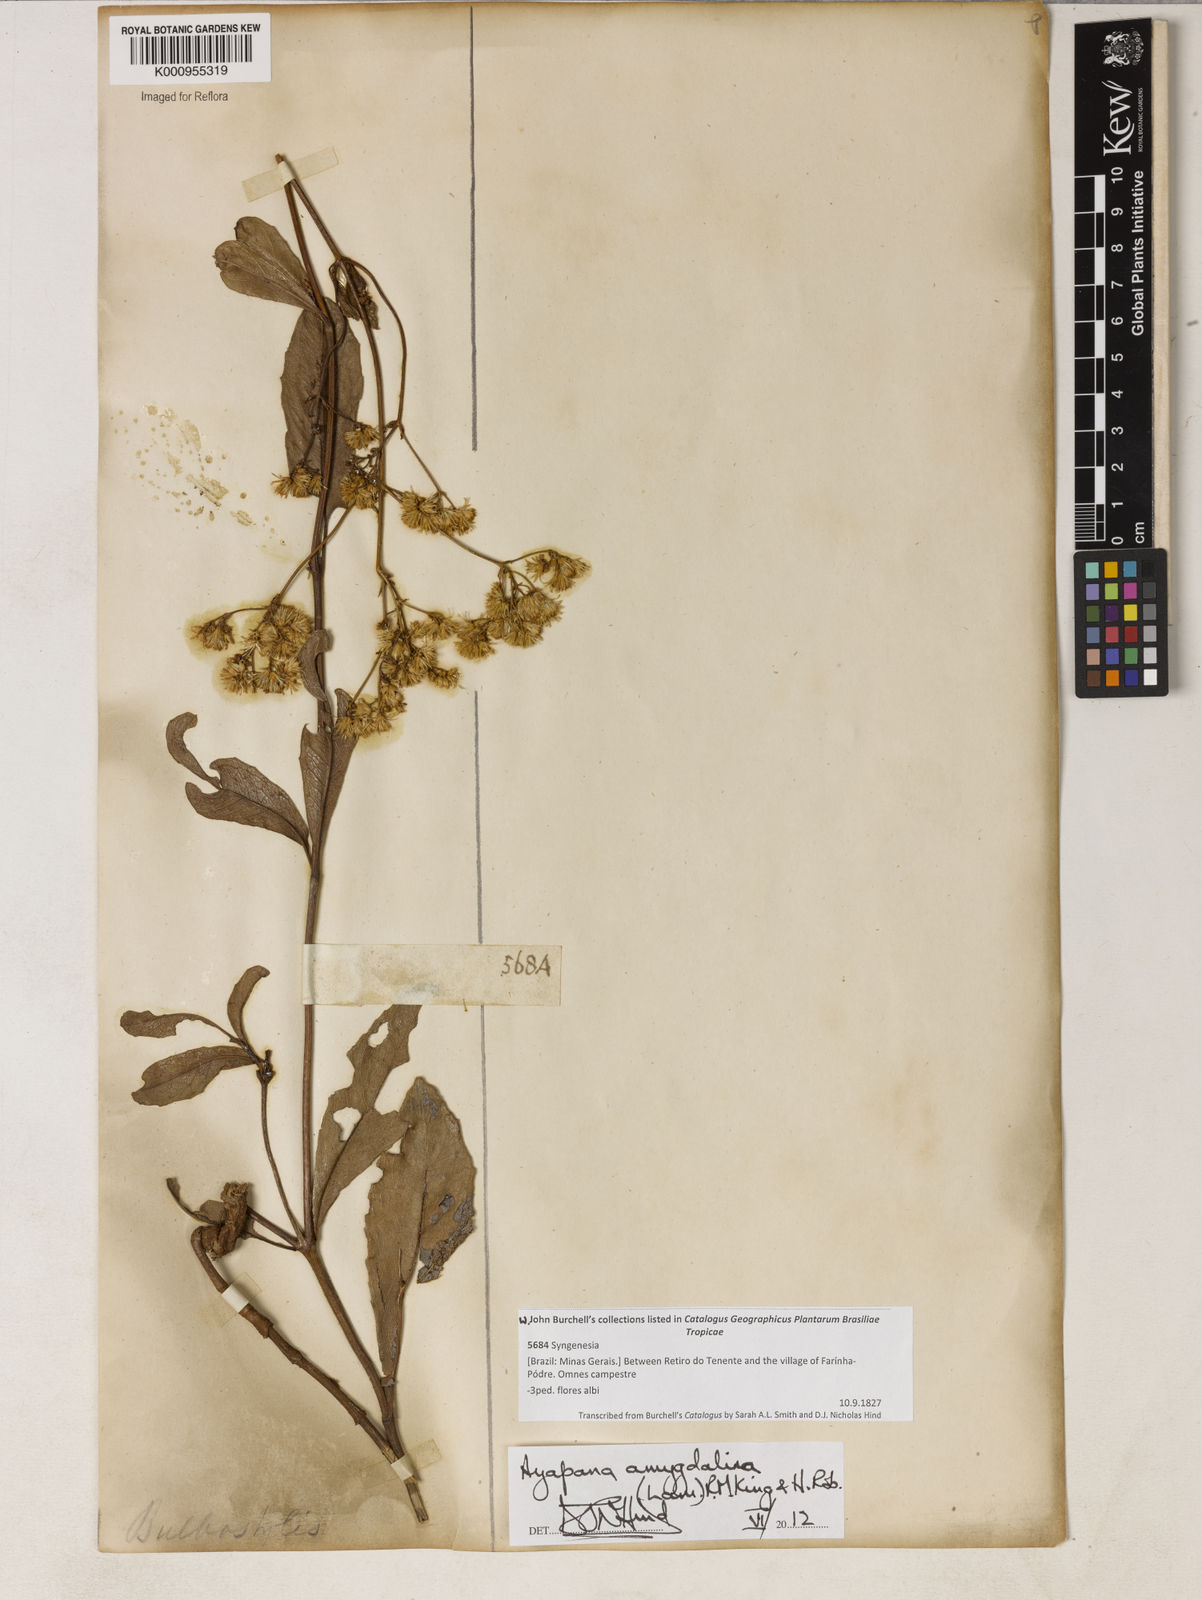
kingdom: Plantae
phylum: Tracheophyta
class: Magnoliopsida
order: Asterales
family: Asteraceae
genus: Ayapana
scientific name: Ayapana amygdalina
